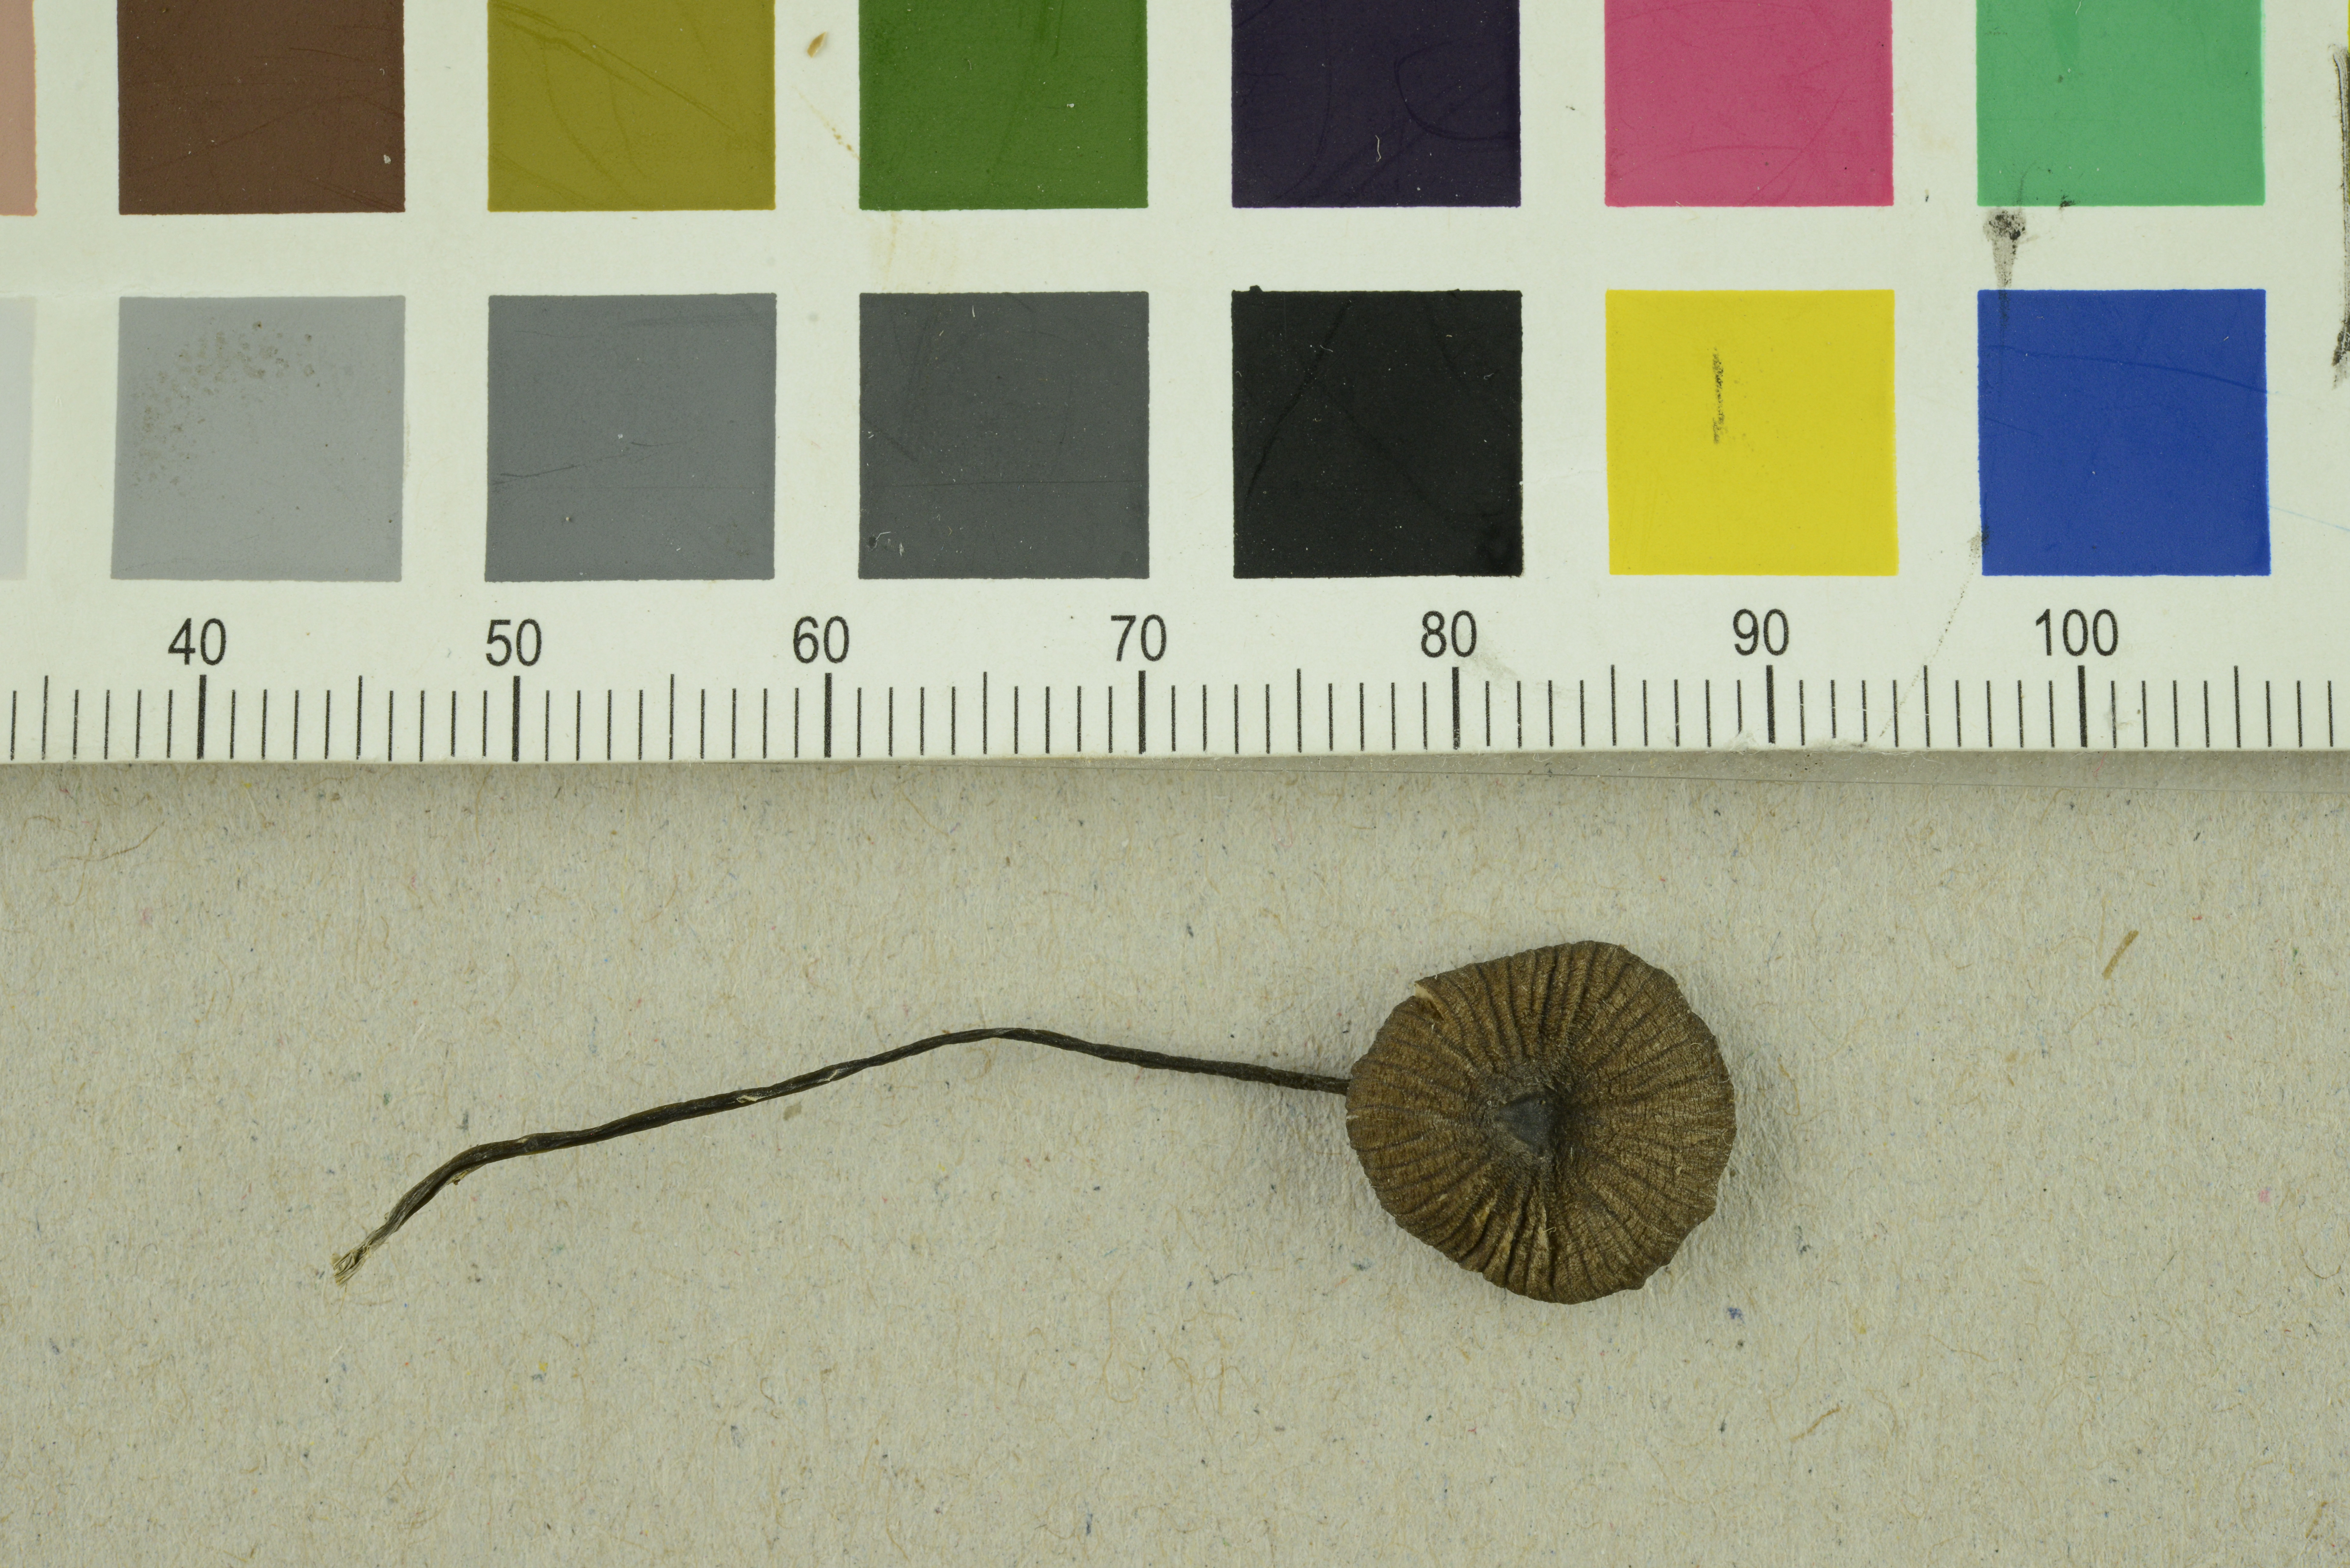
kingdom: Fungi
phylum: Basidiomycota
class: Agaricomycetes
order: Agaricales
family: Entolomataceae
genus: Entoloma
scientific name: Entoloma poliopus
